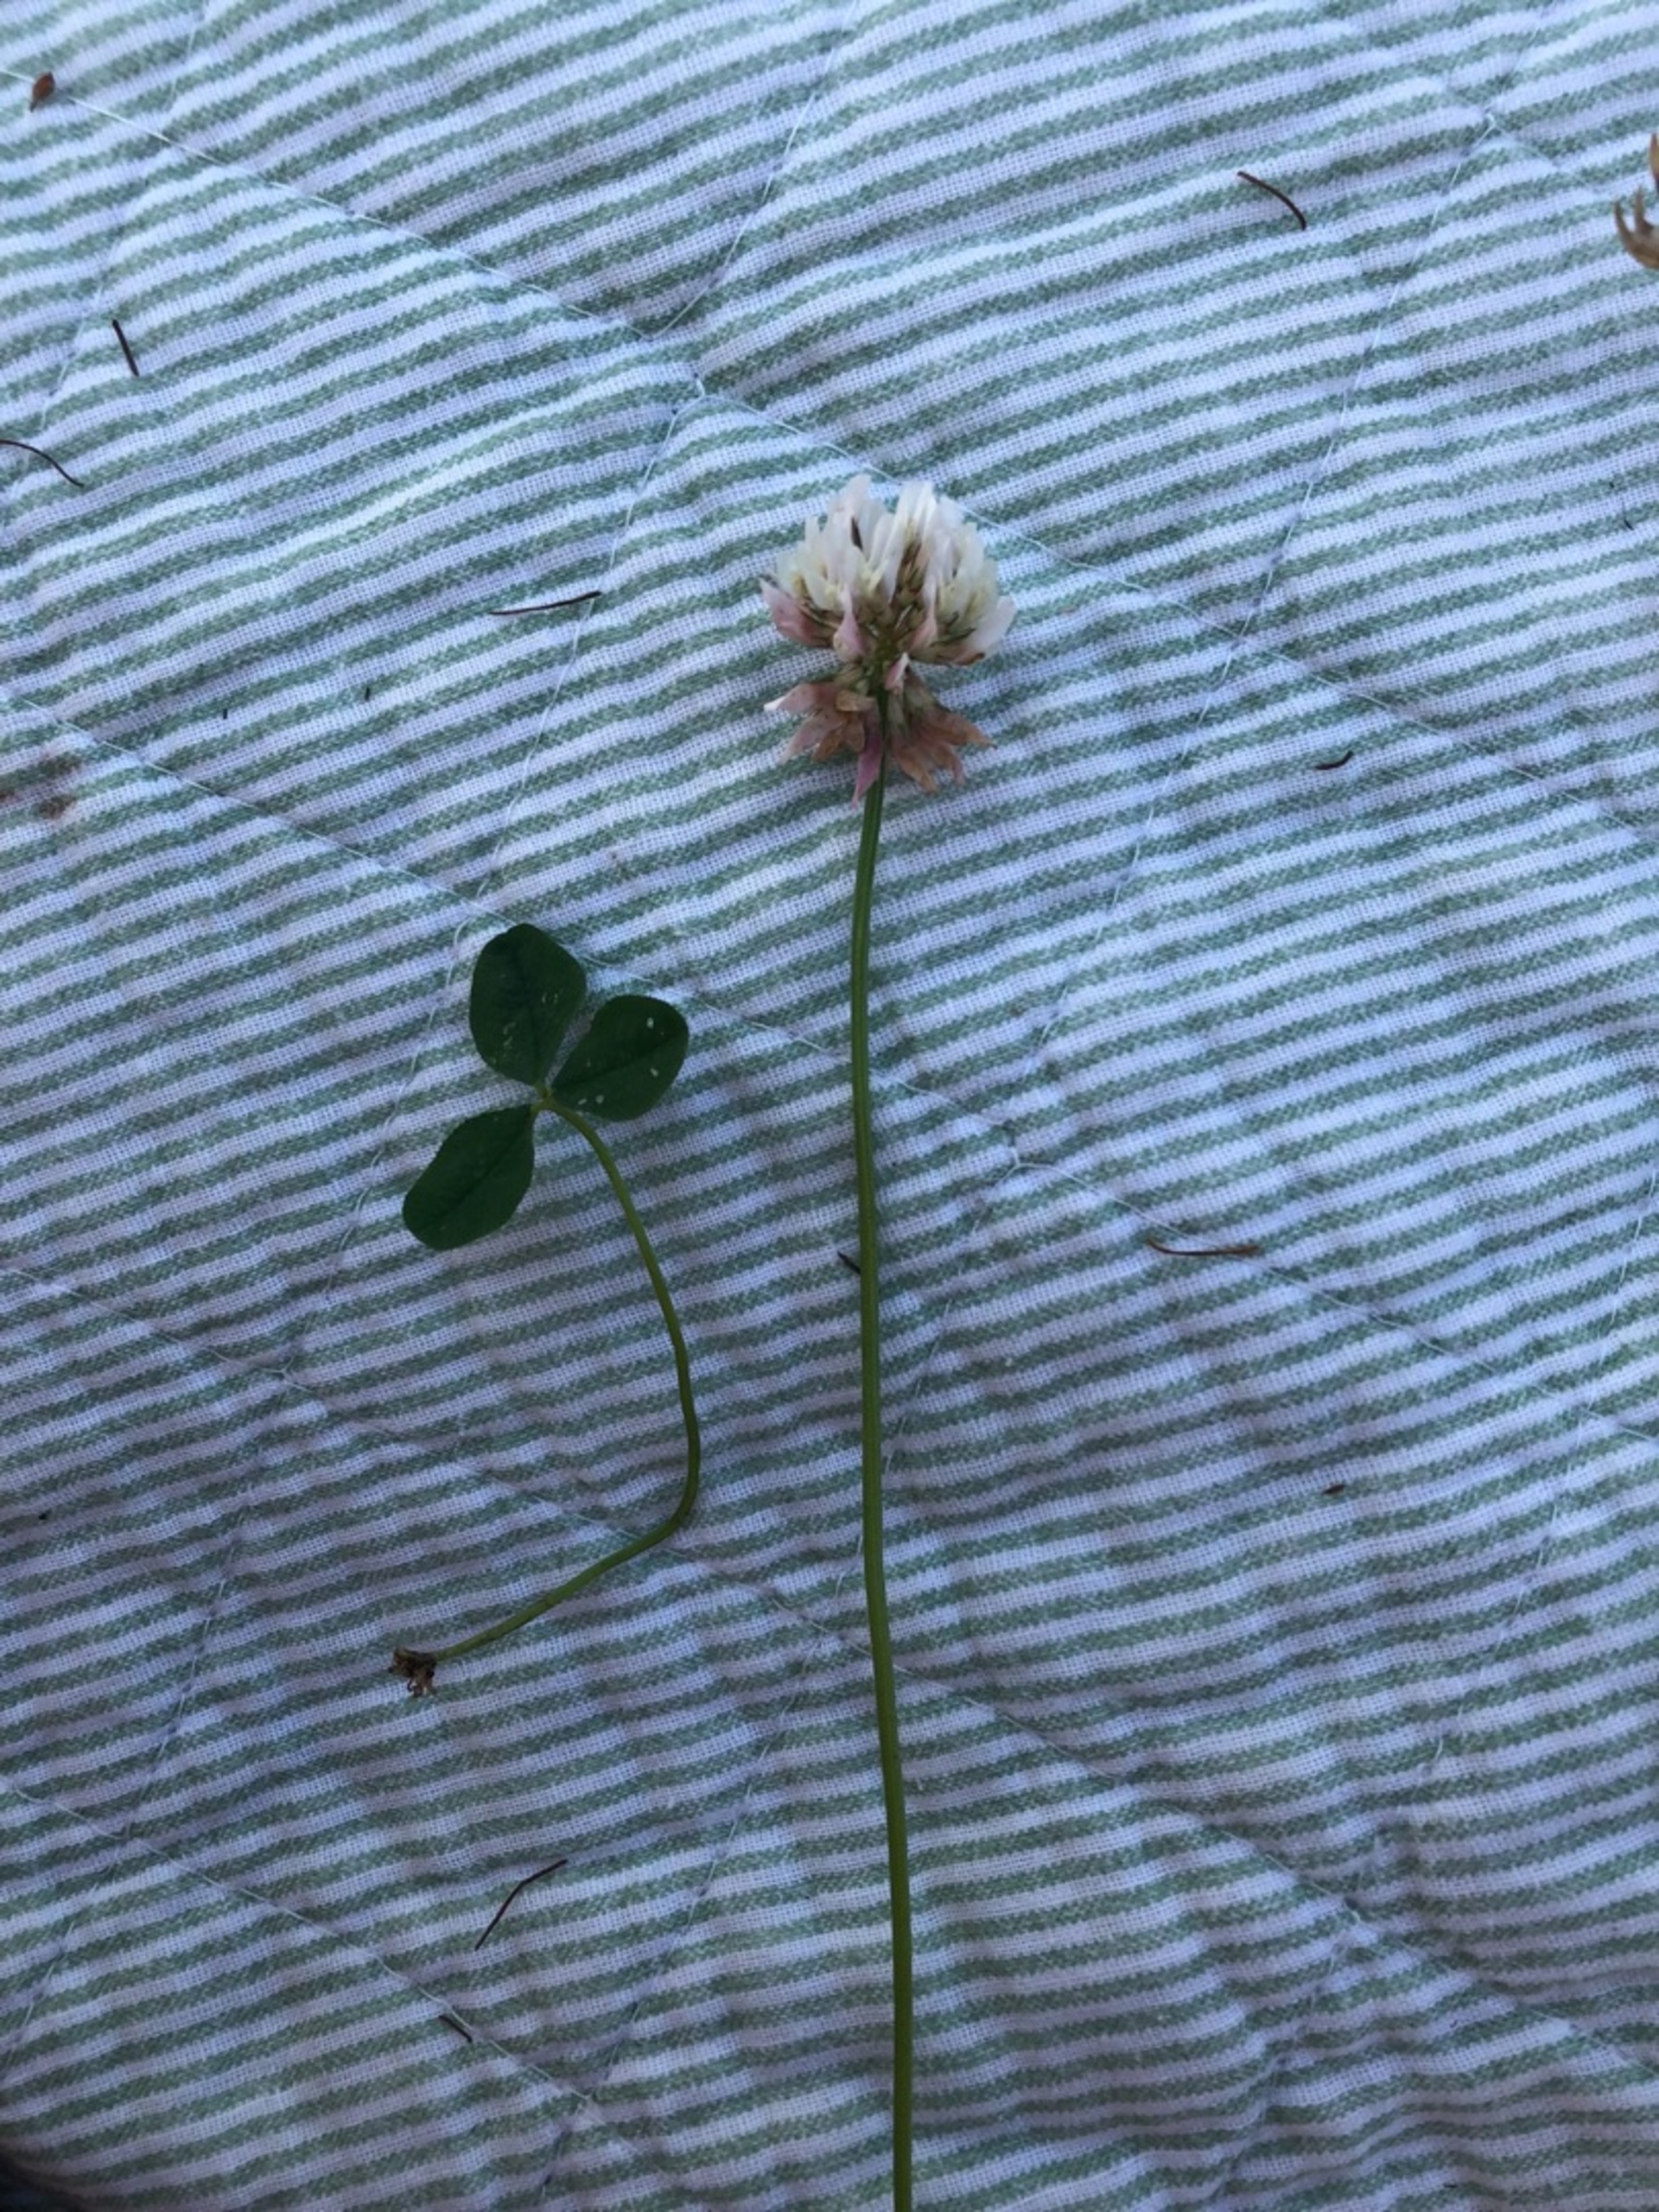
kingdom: Plantae
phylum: Tracheophyta
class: Magnoliopsida
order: Fabales
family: Fabaceae
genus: Trifolium
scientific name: Trifolium repens
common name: Hvid-kløver
